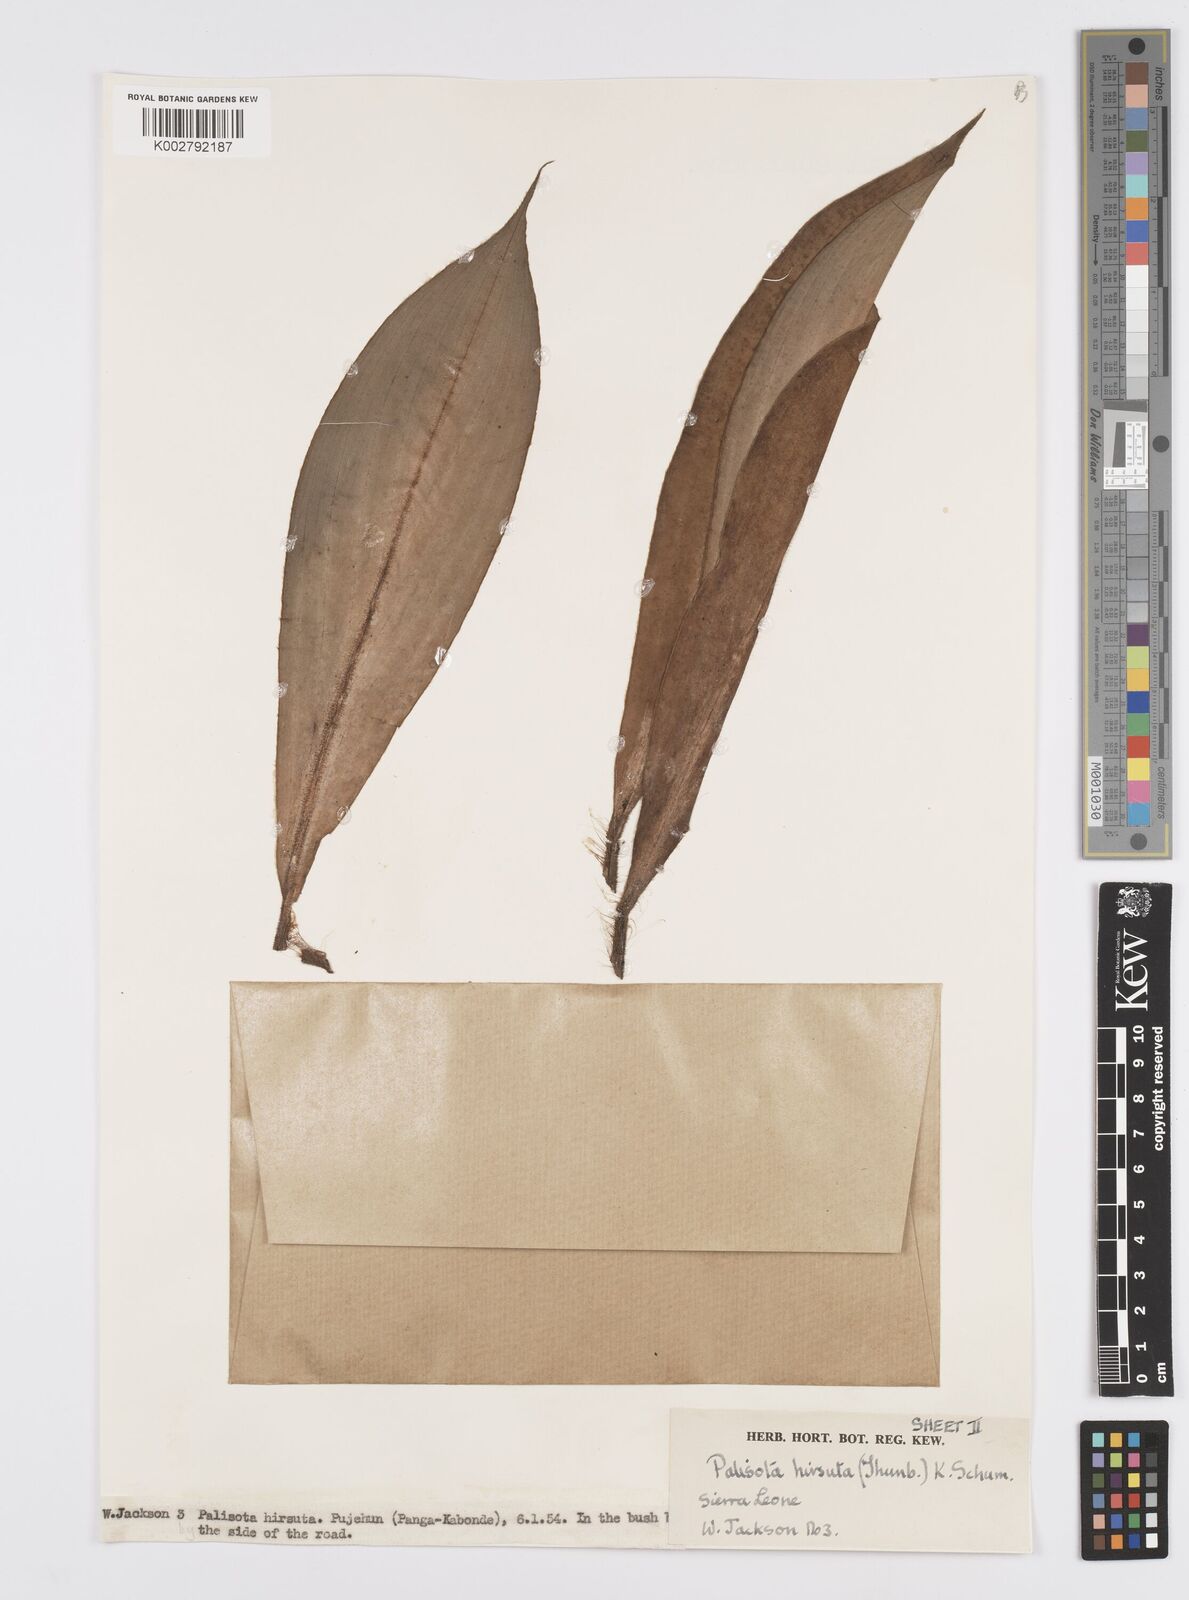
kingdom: Plantae
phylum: Tracheophyta
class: Liliopsida
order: Commelinales
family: Commelinaceae
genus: Palisota
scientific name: Palisota hirsuta
